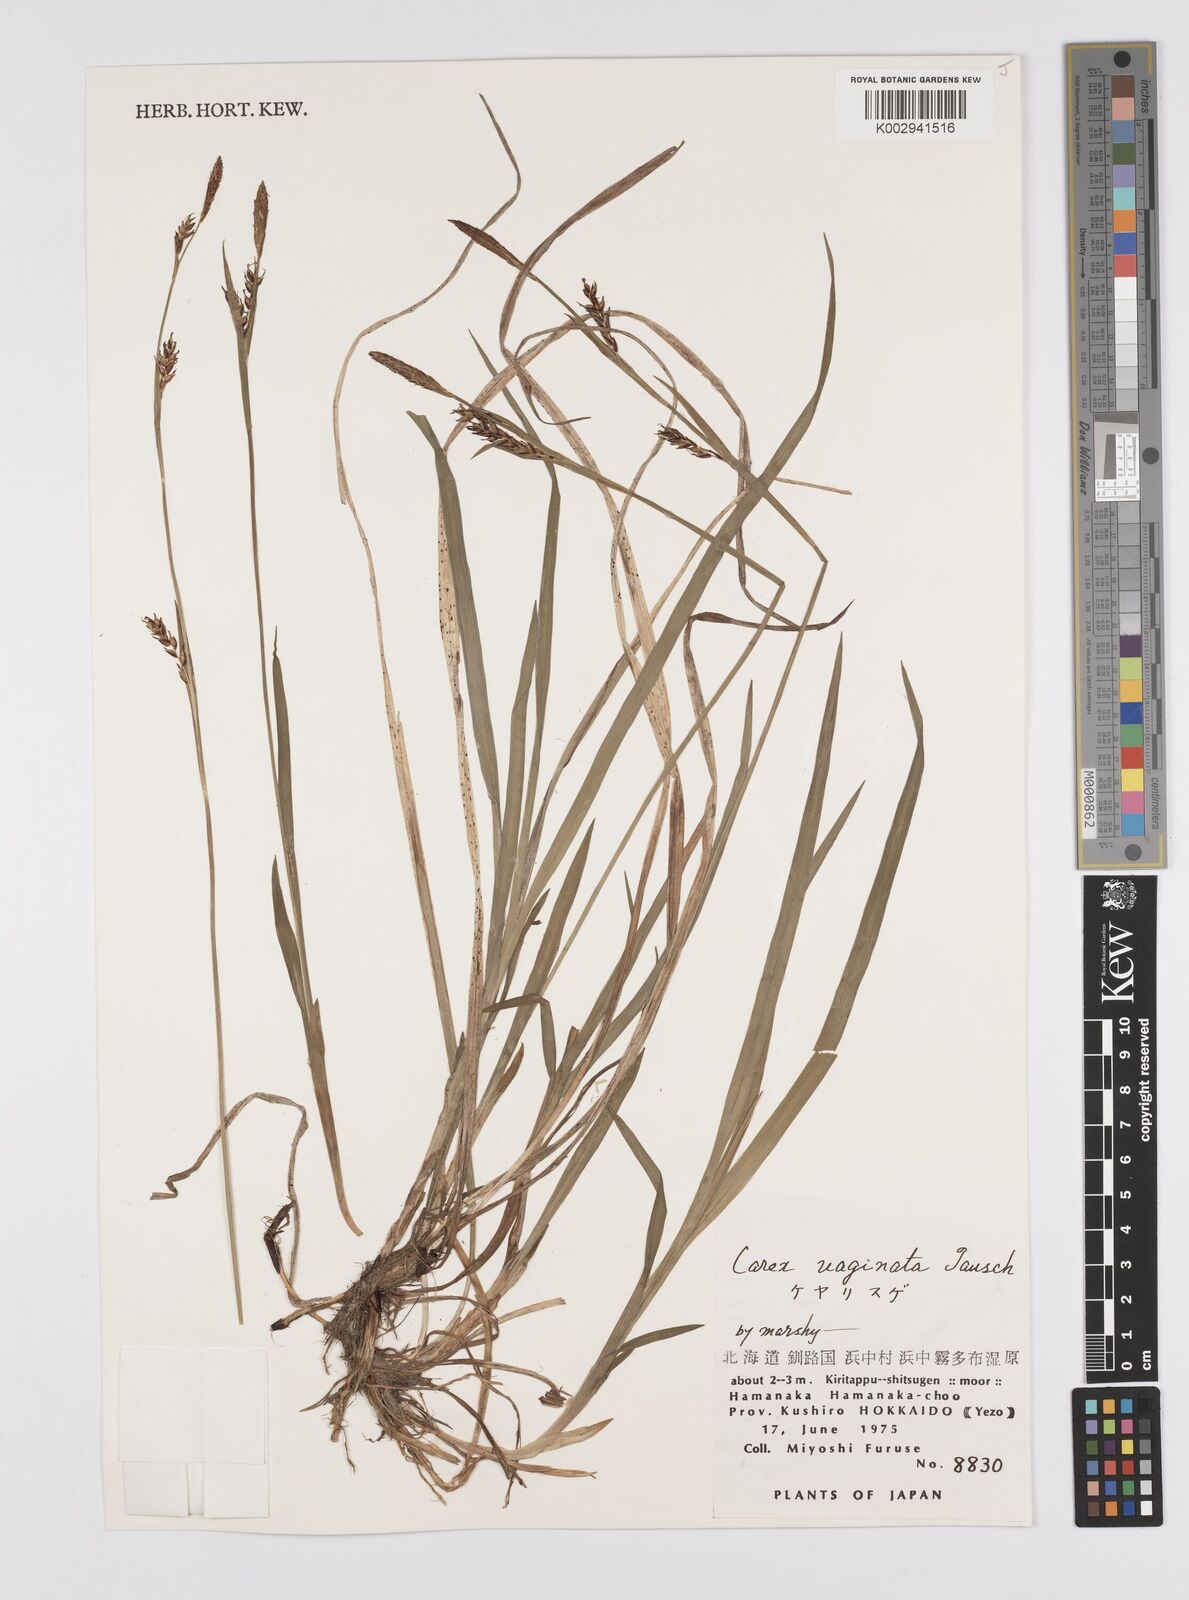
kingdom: Plantae
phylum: Tracheophyta
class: Liliopsida
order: Poales
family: Cyperaceae
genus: Carex
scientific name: Carex vaginata
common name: Sheathed sedge
